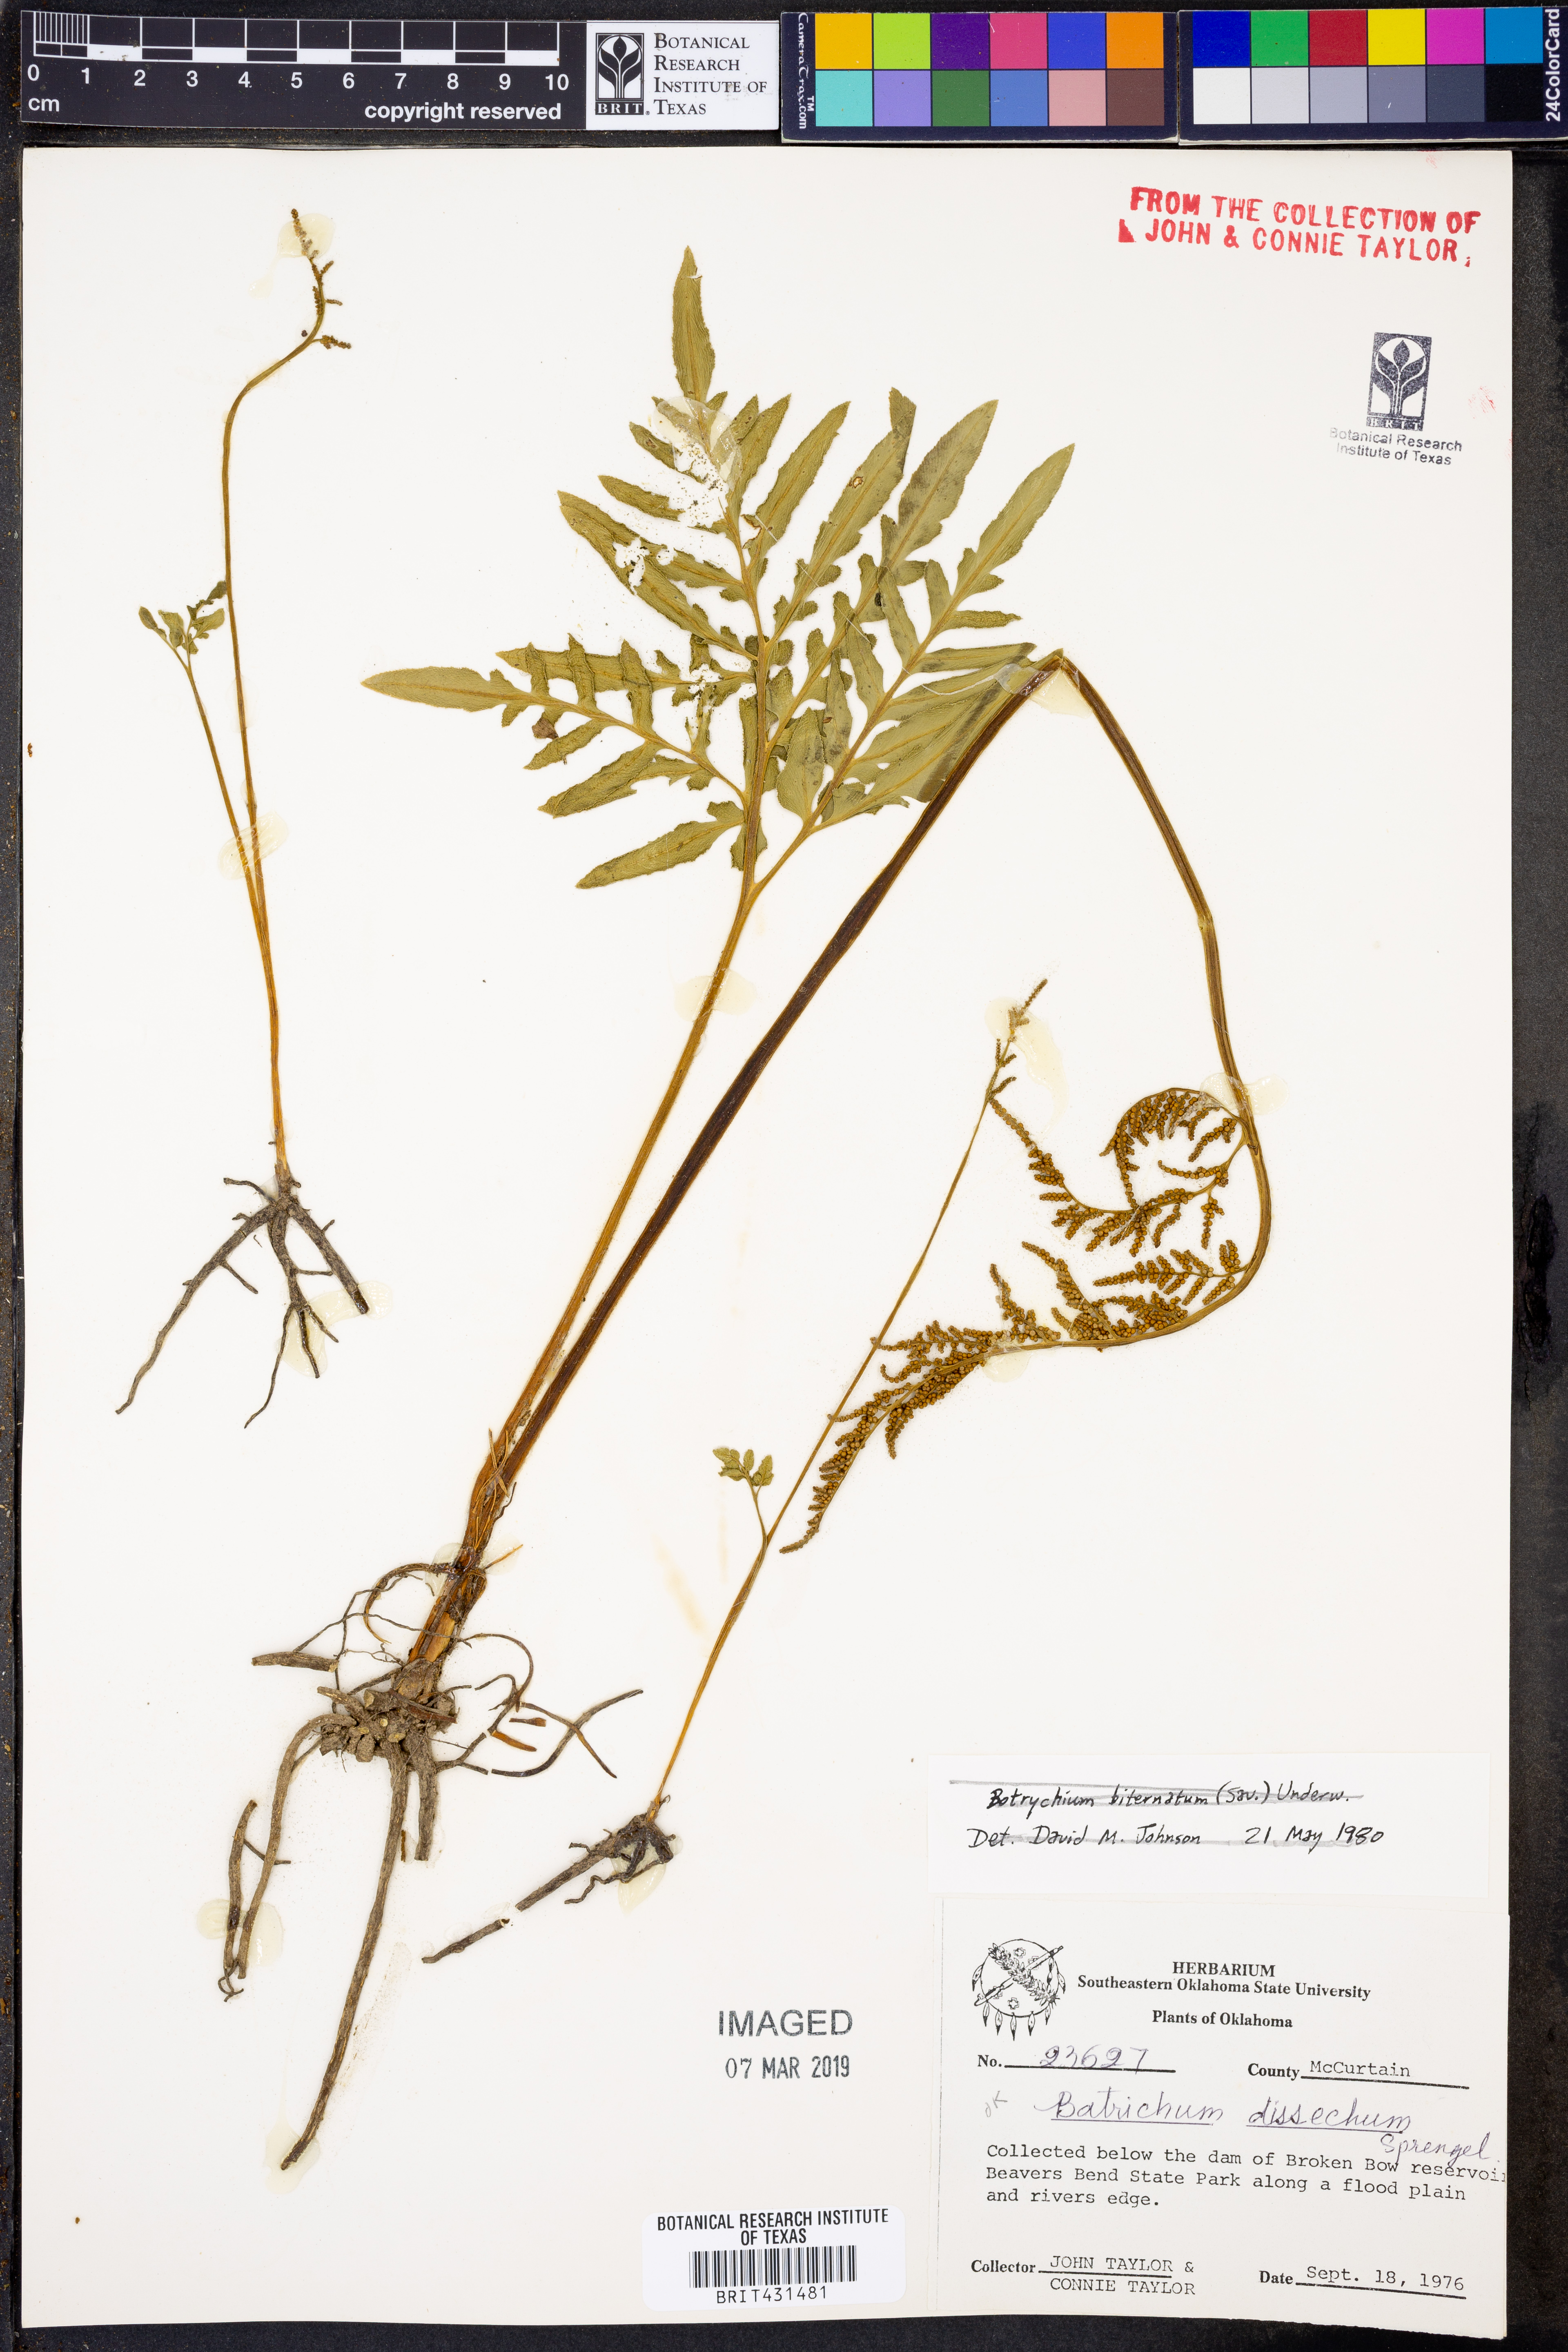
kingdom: Plantae
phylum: Tracheophyta
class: Polypodiopsida
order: Ophioglossales
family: Ophioglossaceae
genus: Sceptridium
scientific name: Sceptridium dissectum
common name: Cut-leaved grapefern
